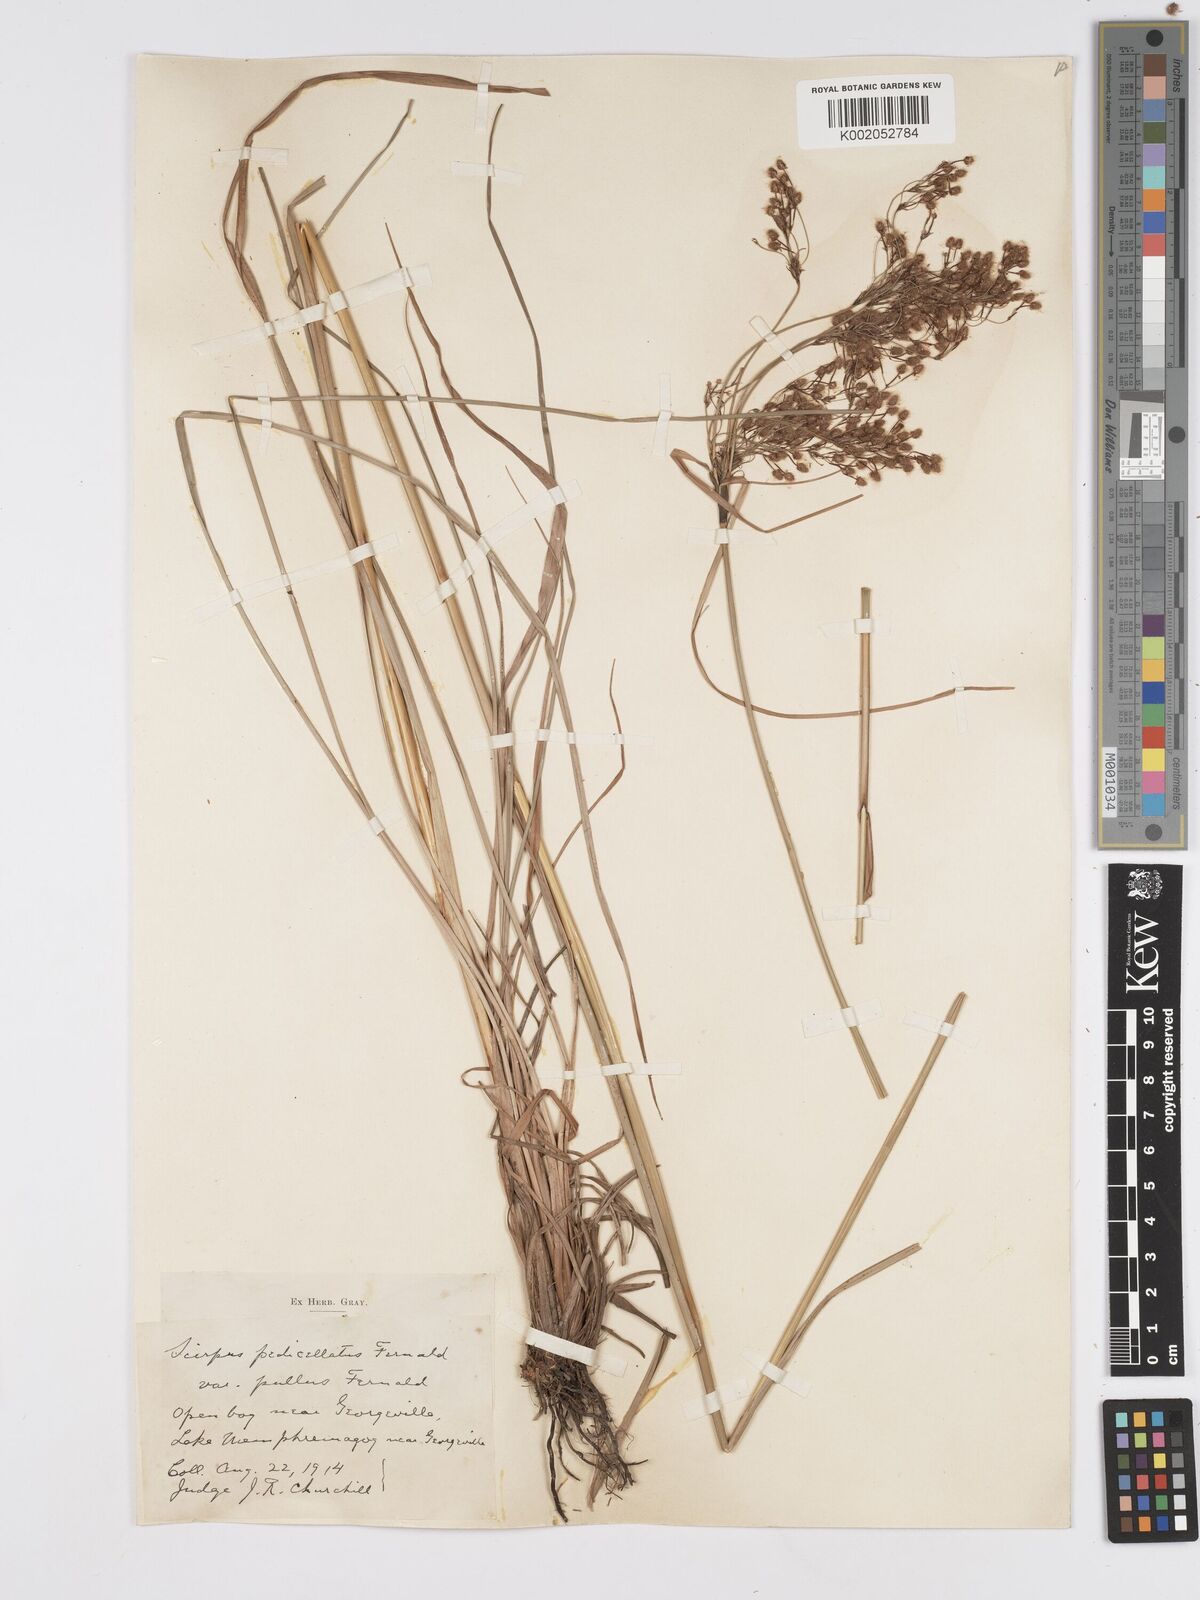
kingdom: Plantae
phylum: Tracheophyta
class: Liliopsida
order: Poales
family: Cyperaceae
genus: Scirpus
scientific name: Scirpus cyperinus
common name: Black-sheathed bulrush
